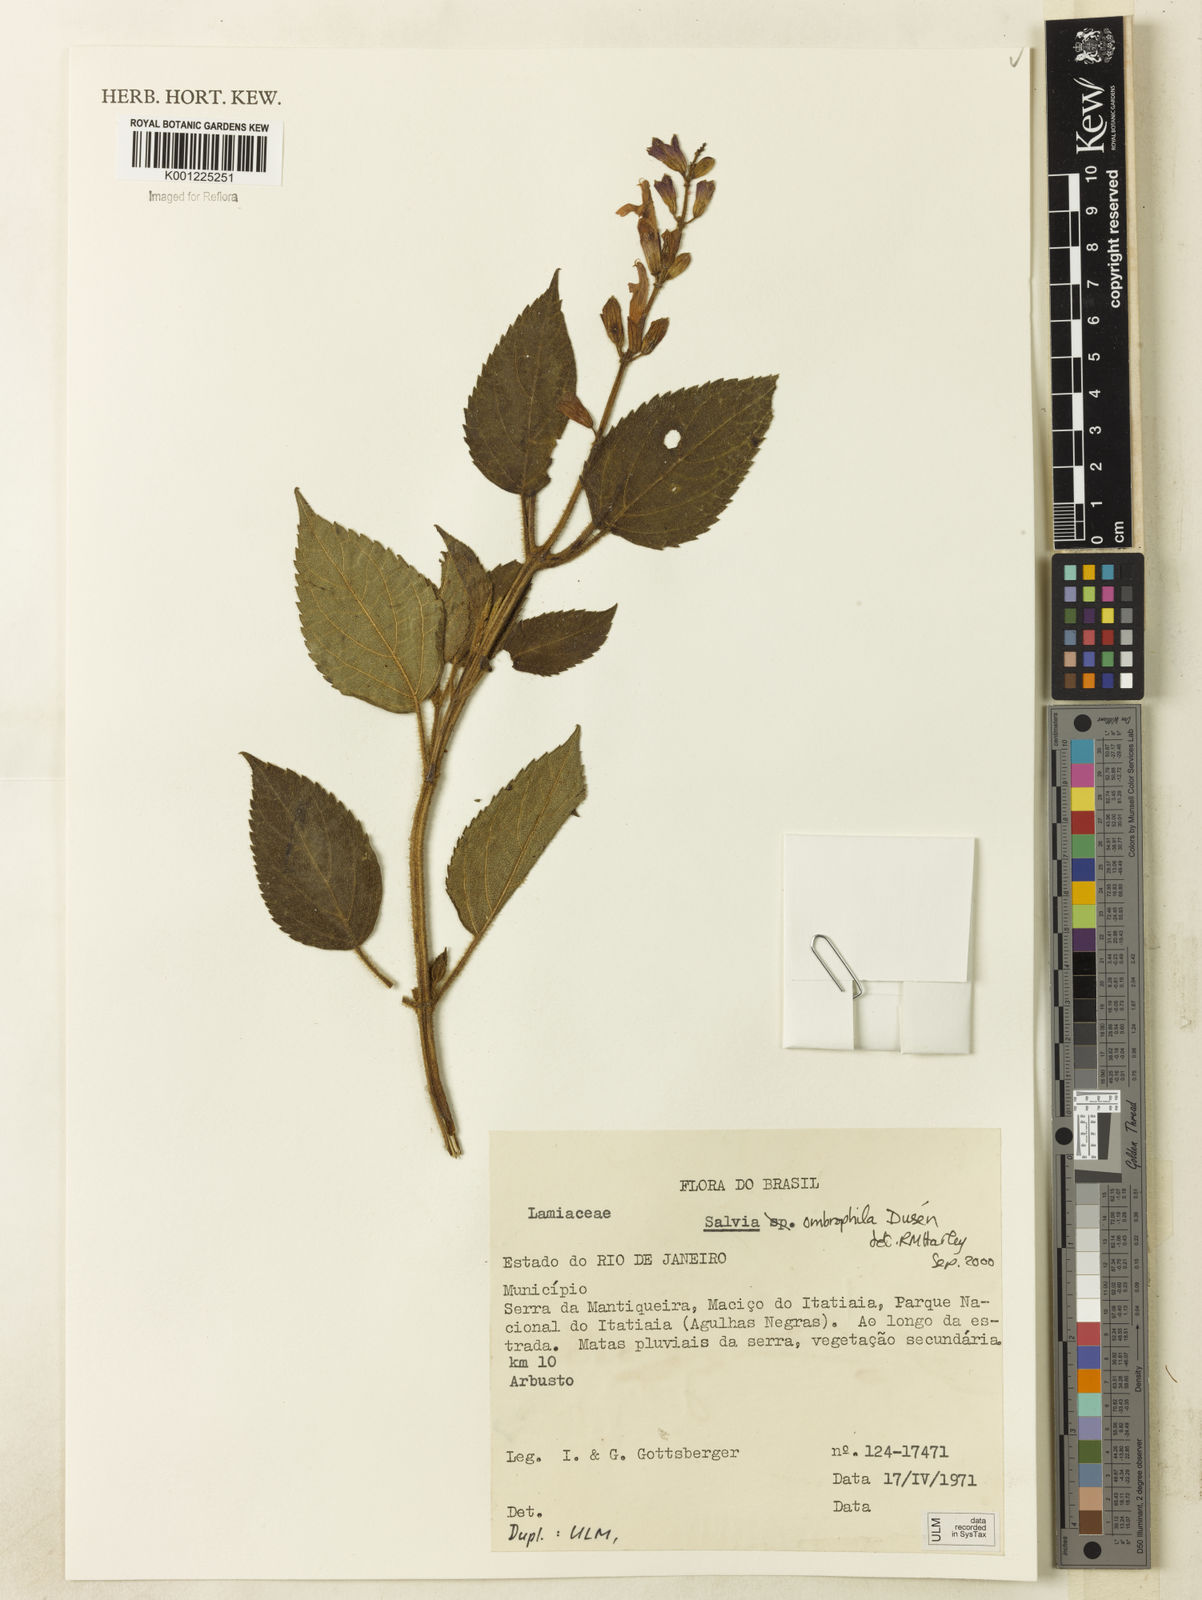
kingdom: Plantae
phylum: Tracheophyta
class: Magnoliopsida
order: Lamiales
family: Lamiaceae
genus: Salvia
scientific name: Salvia
